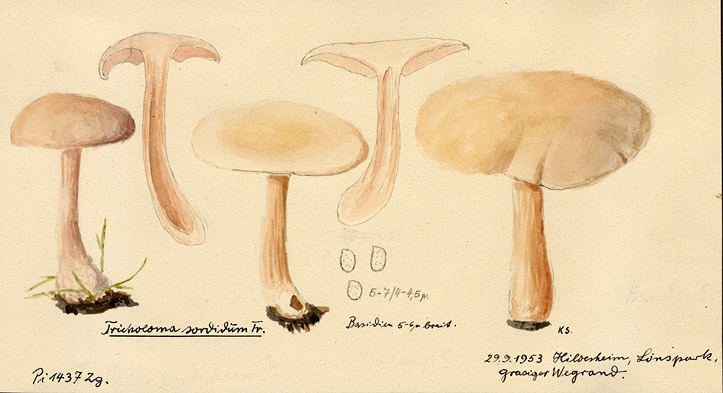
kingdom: Fungi
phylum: Basidiomycota
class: Agaricomycetes
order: Agaricales
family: Tricholomataceae
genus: Lepista
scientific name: Lepista sordida
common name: Sordid blewit
